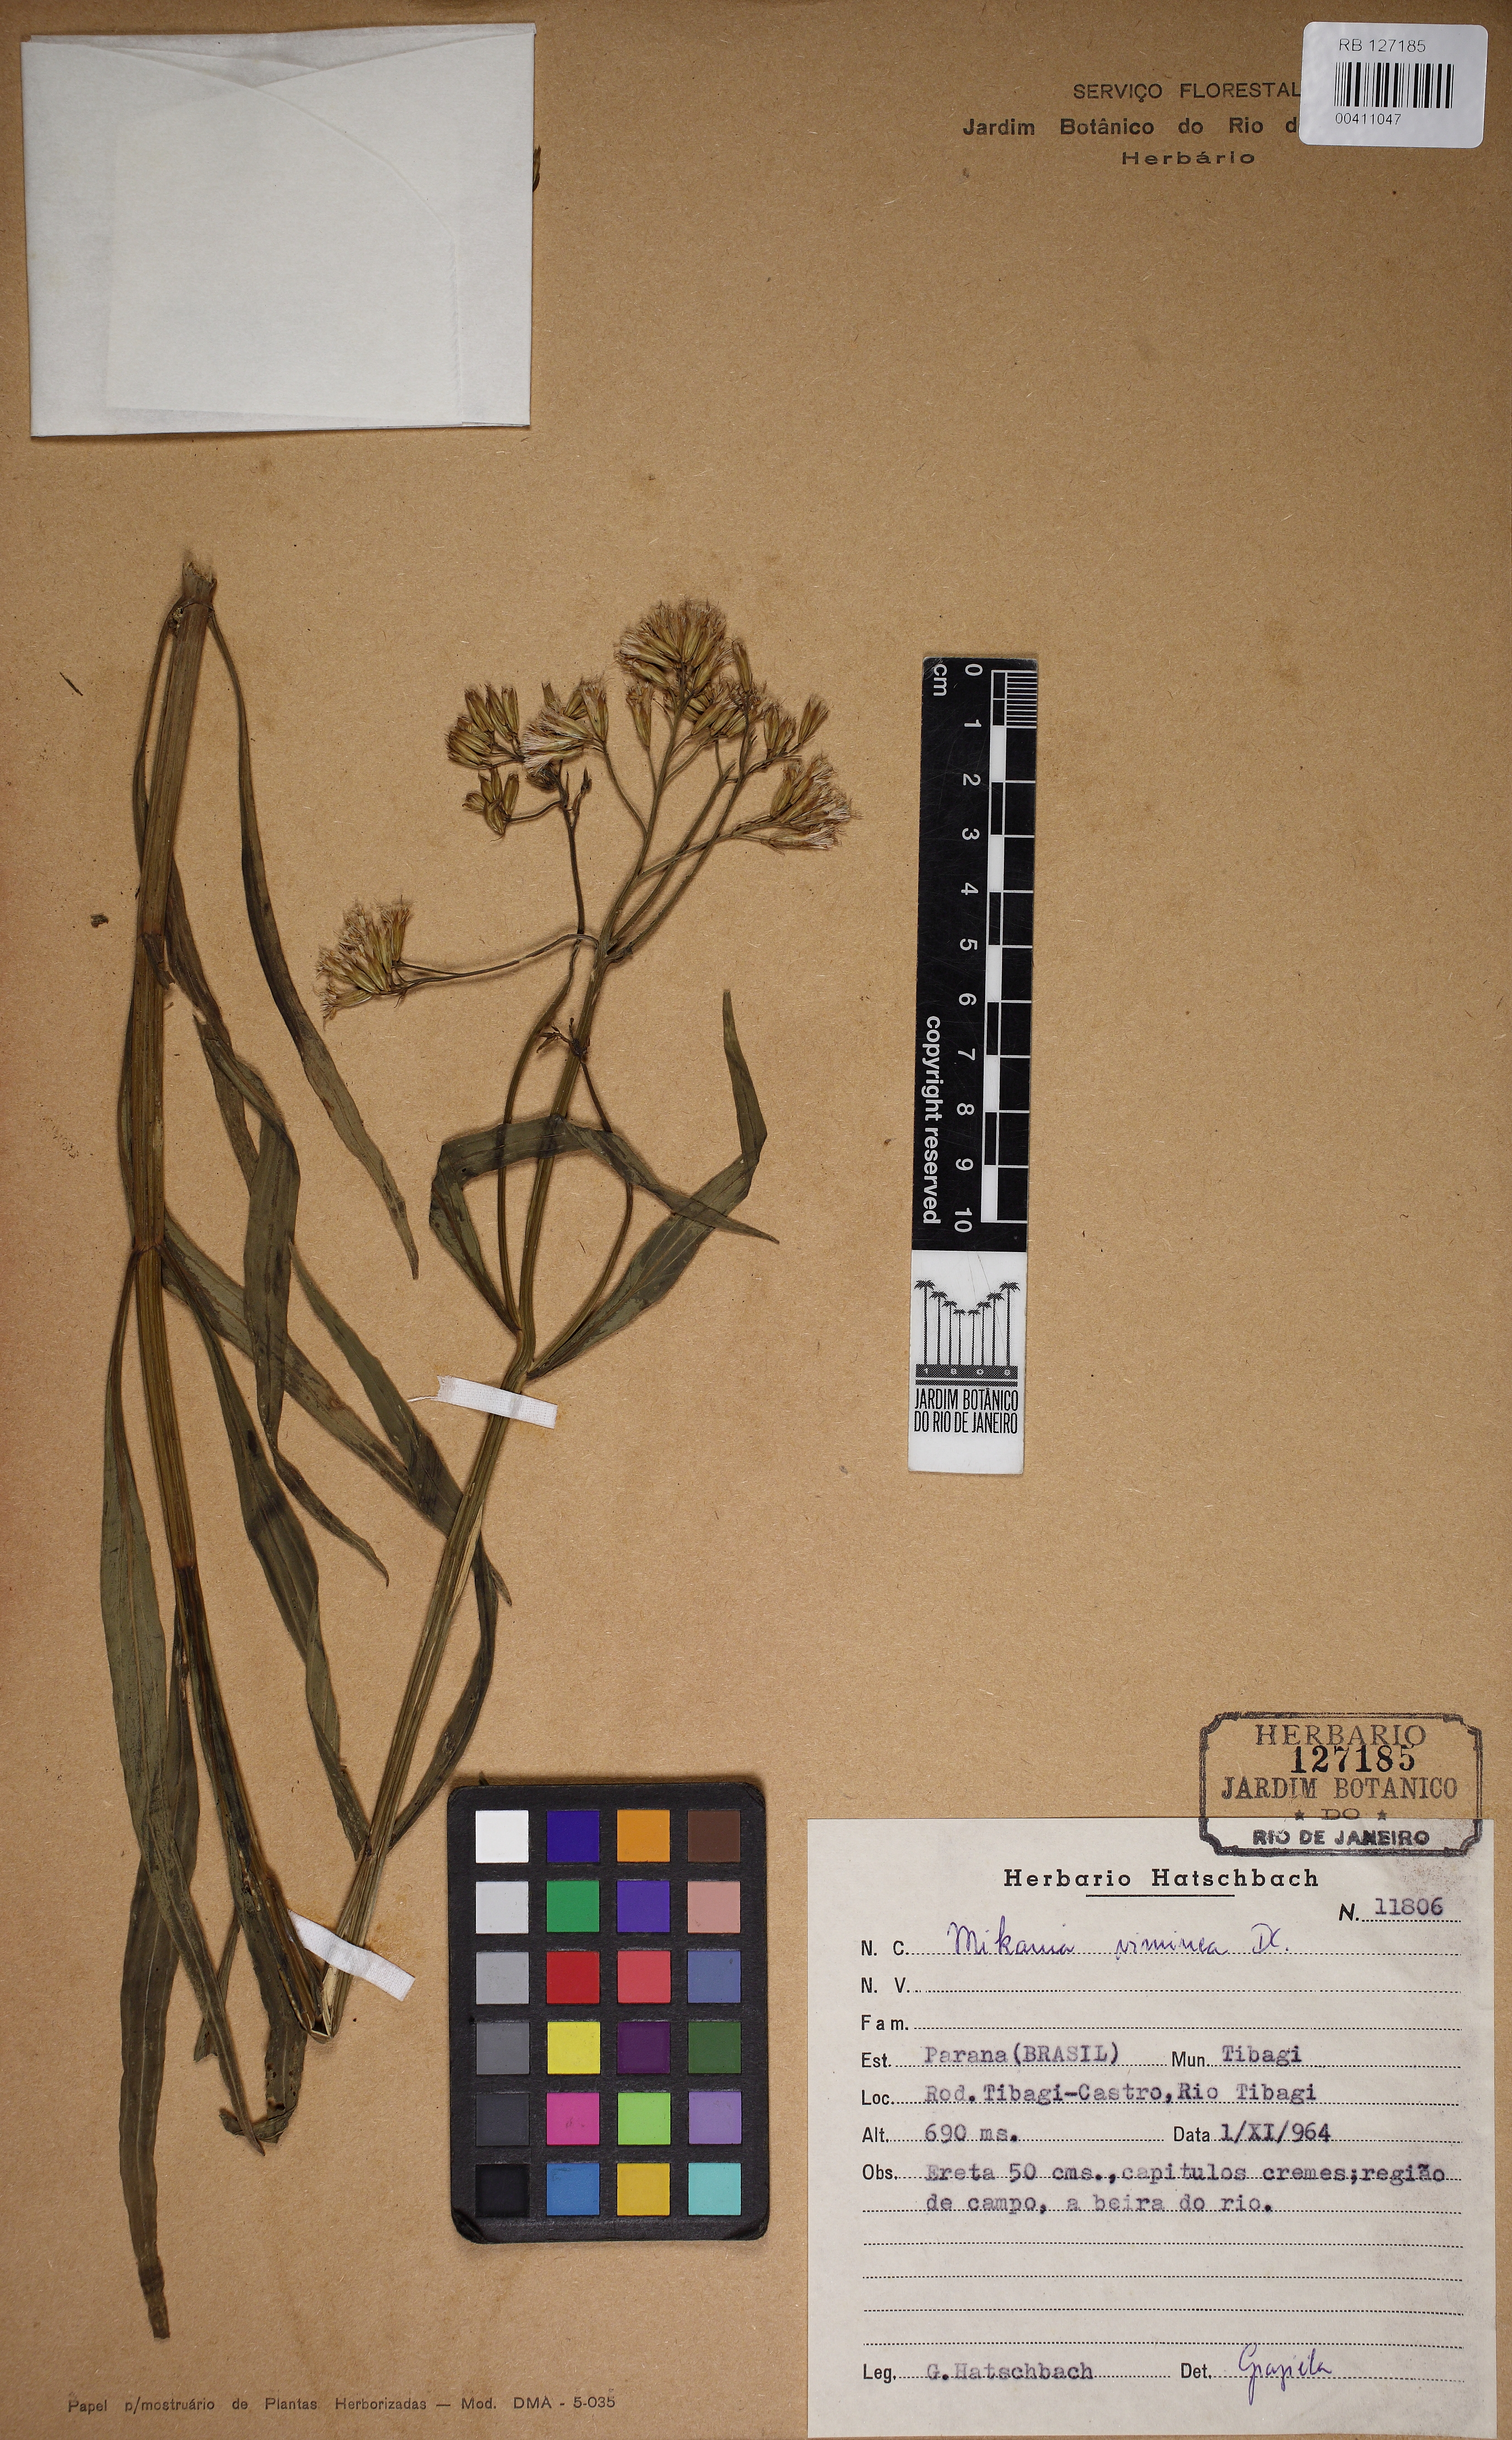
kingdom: Plantae
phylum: Tracheophyta
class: Magnoliopsida
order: Asterales
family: Asteraceae
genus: Mikania
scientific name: Mikania viminea
